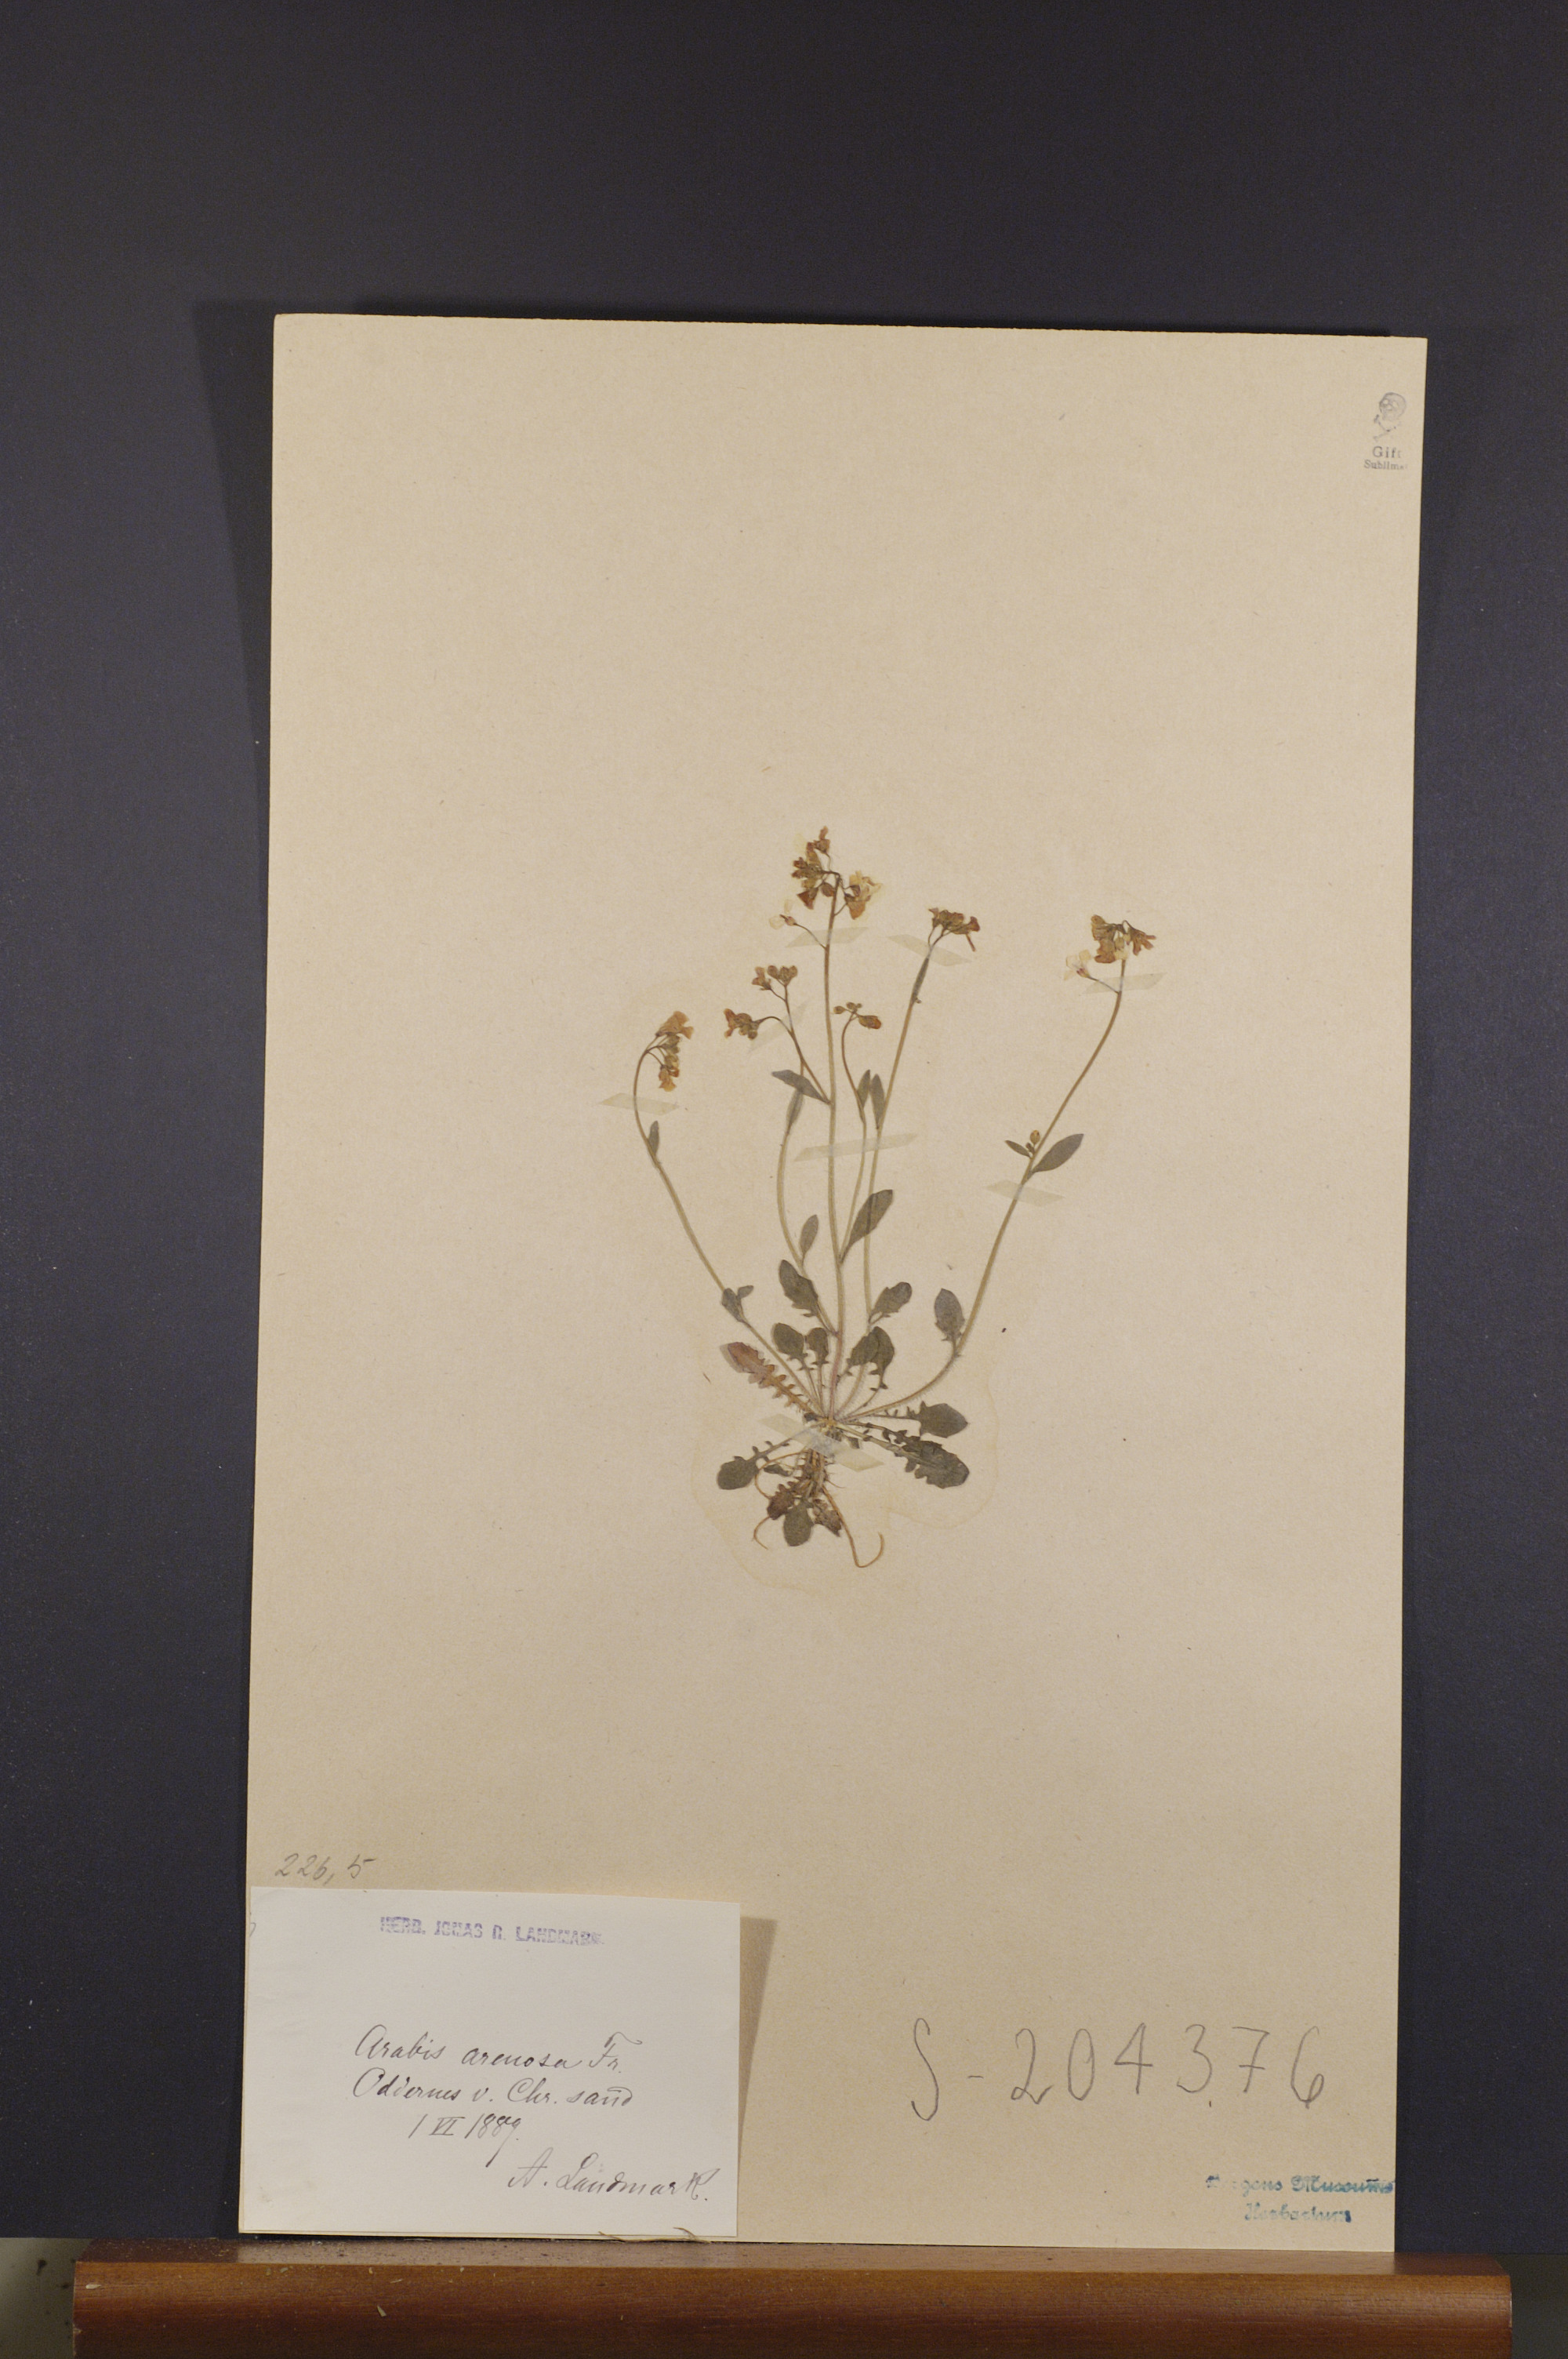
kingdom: Plantae
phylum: Tracheophyta
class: Magnoliopsida
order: Brassicales
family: Brassicaceae
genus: Arabidopsis
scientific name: Arabidopsis arenosa
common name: Sand rock-cress
